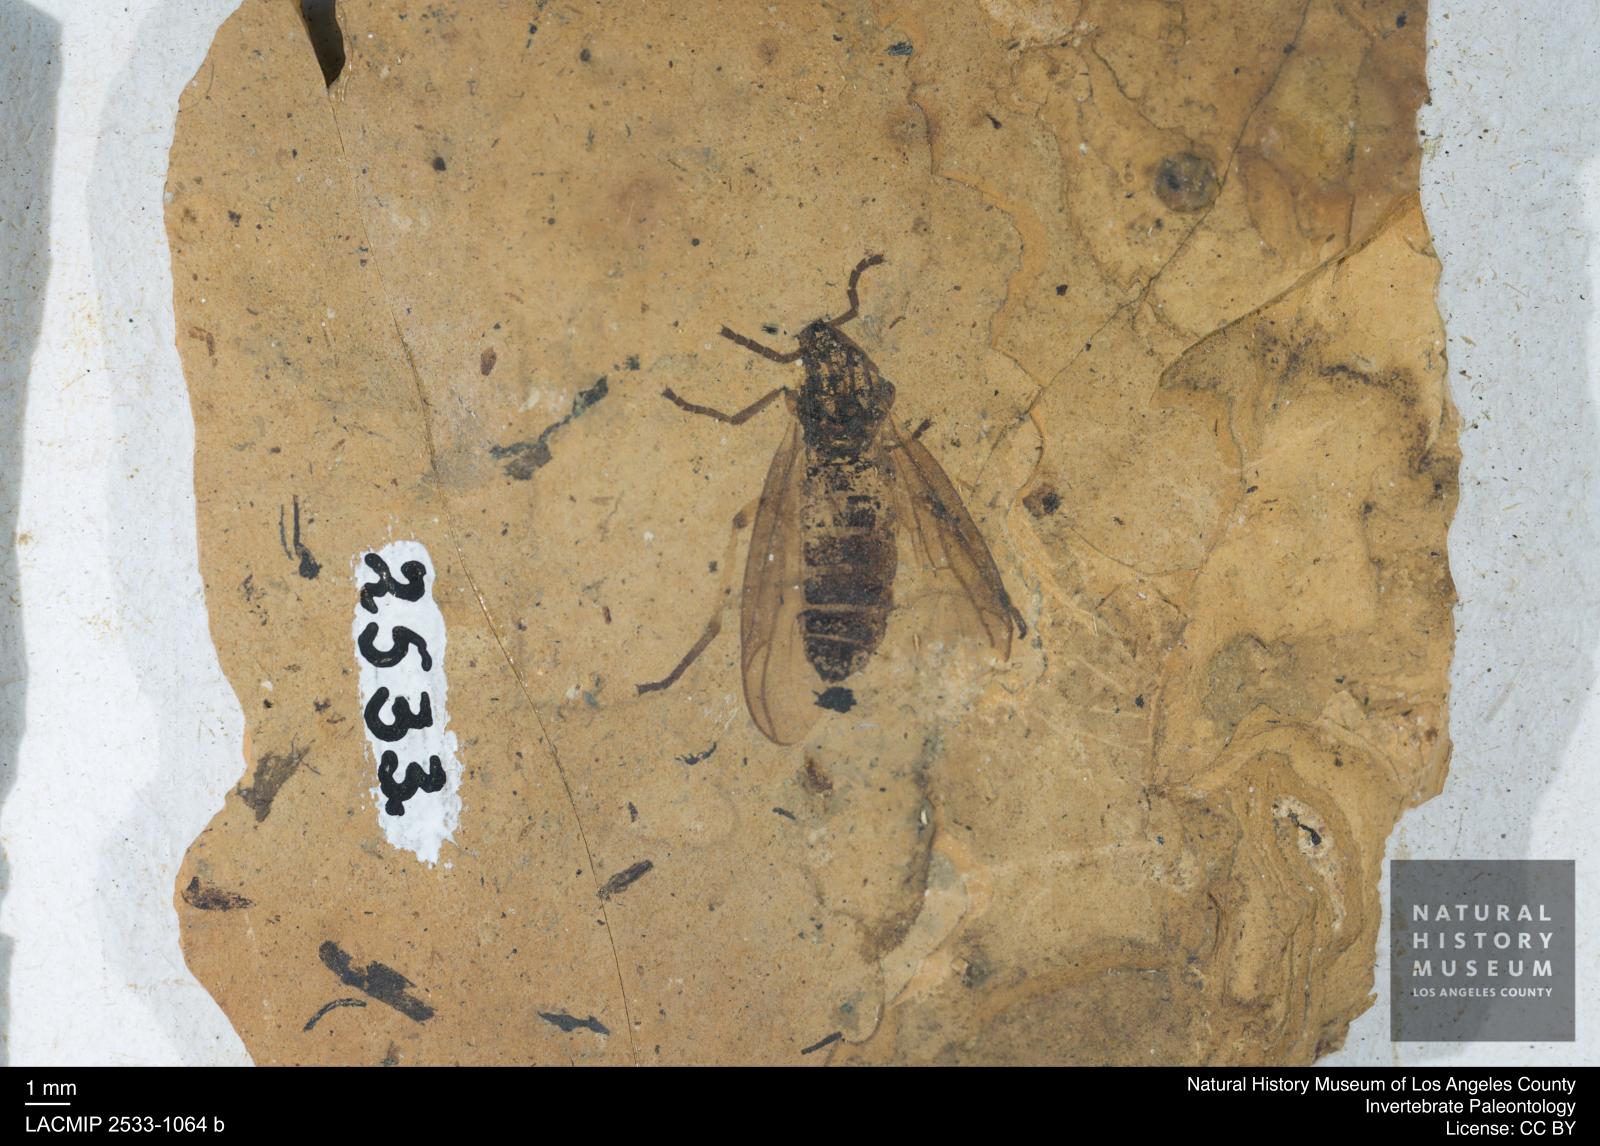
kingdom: Animalia
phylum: Arthropoda
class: Insecta
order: Diptera
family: Bibionidae
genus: Plecia
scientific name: Plecia hypogaea
